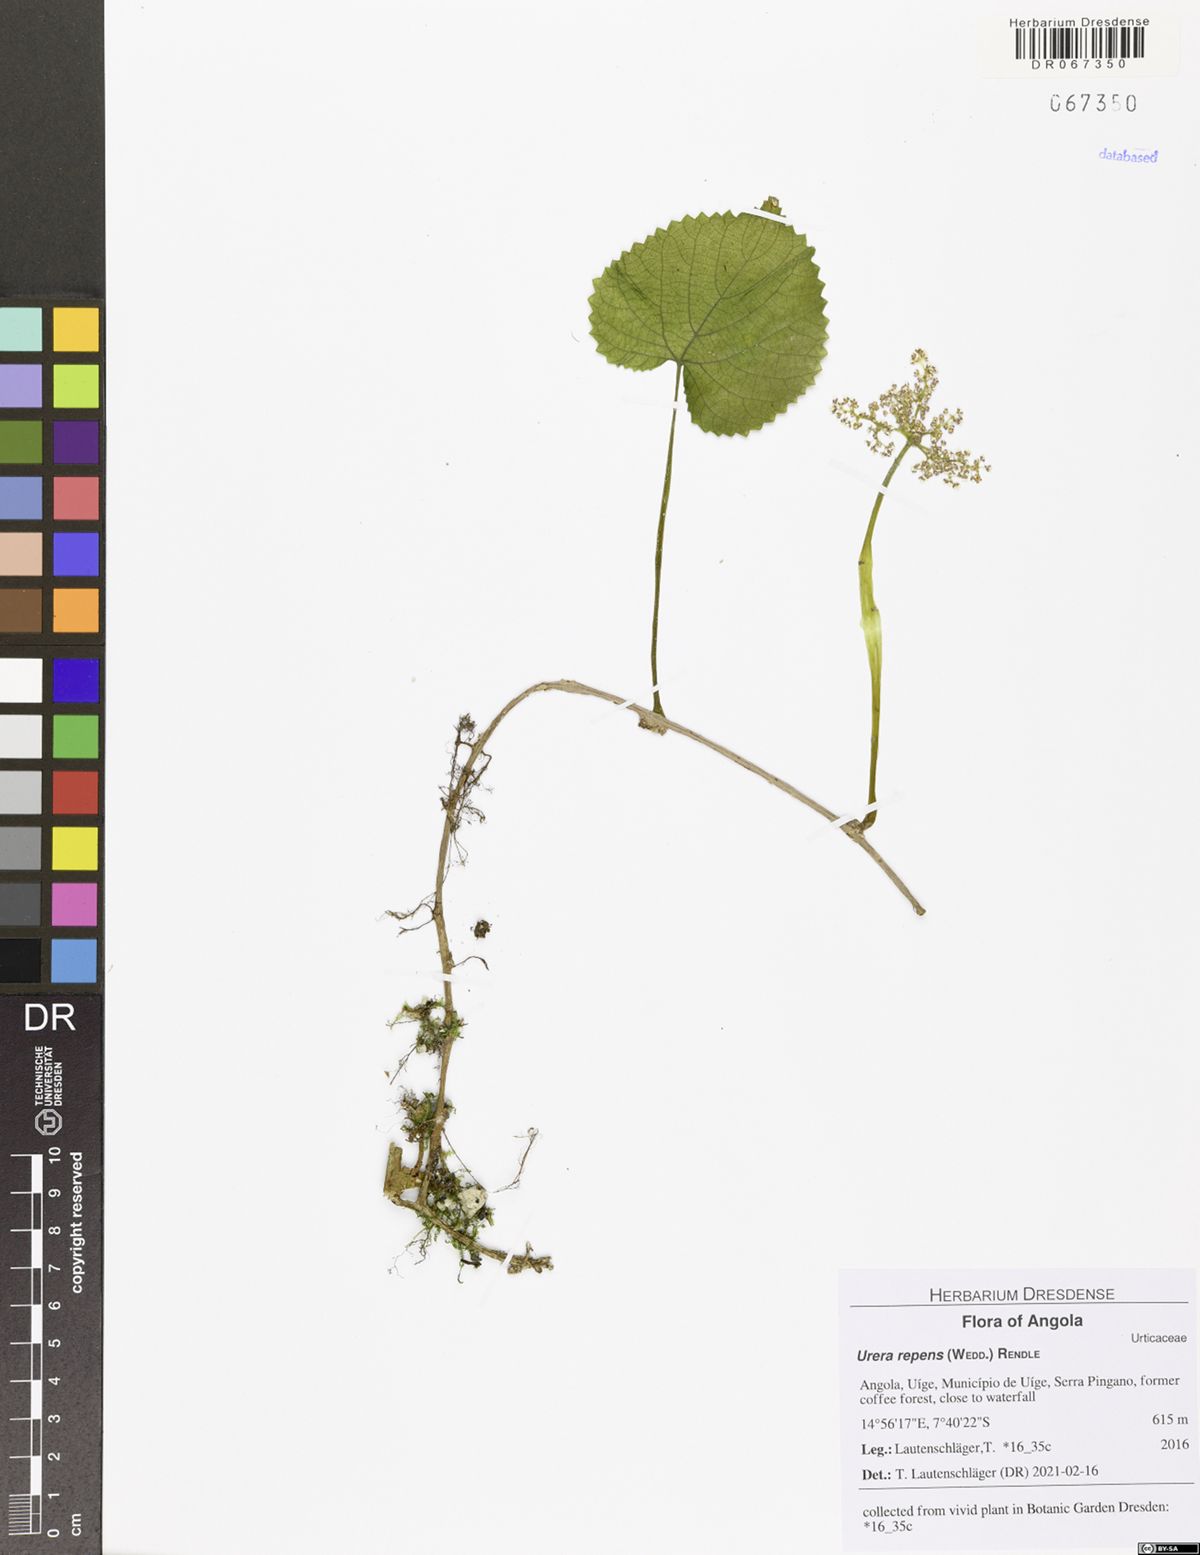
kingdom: Plantae
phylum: Tracheophyta
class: Magnoliopsida
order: Rosales
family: Urticaceae
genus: Scepocarpus
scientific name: Scepocarpus repens
